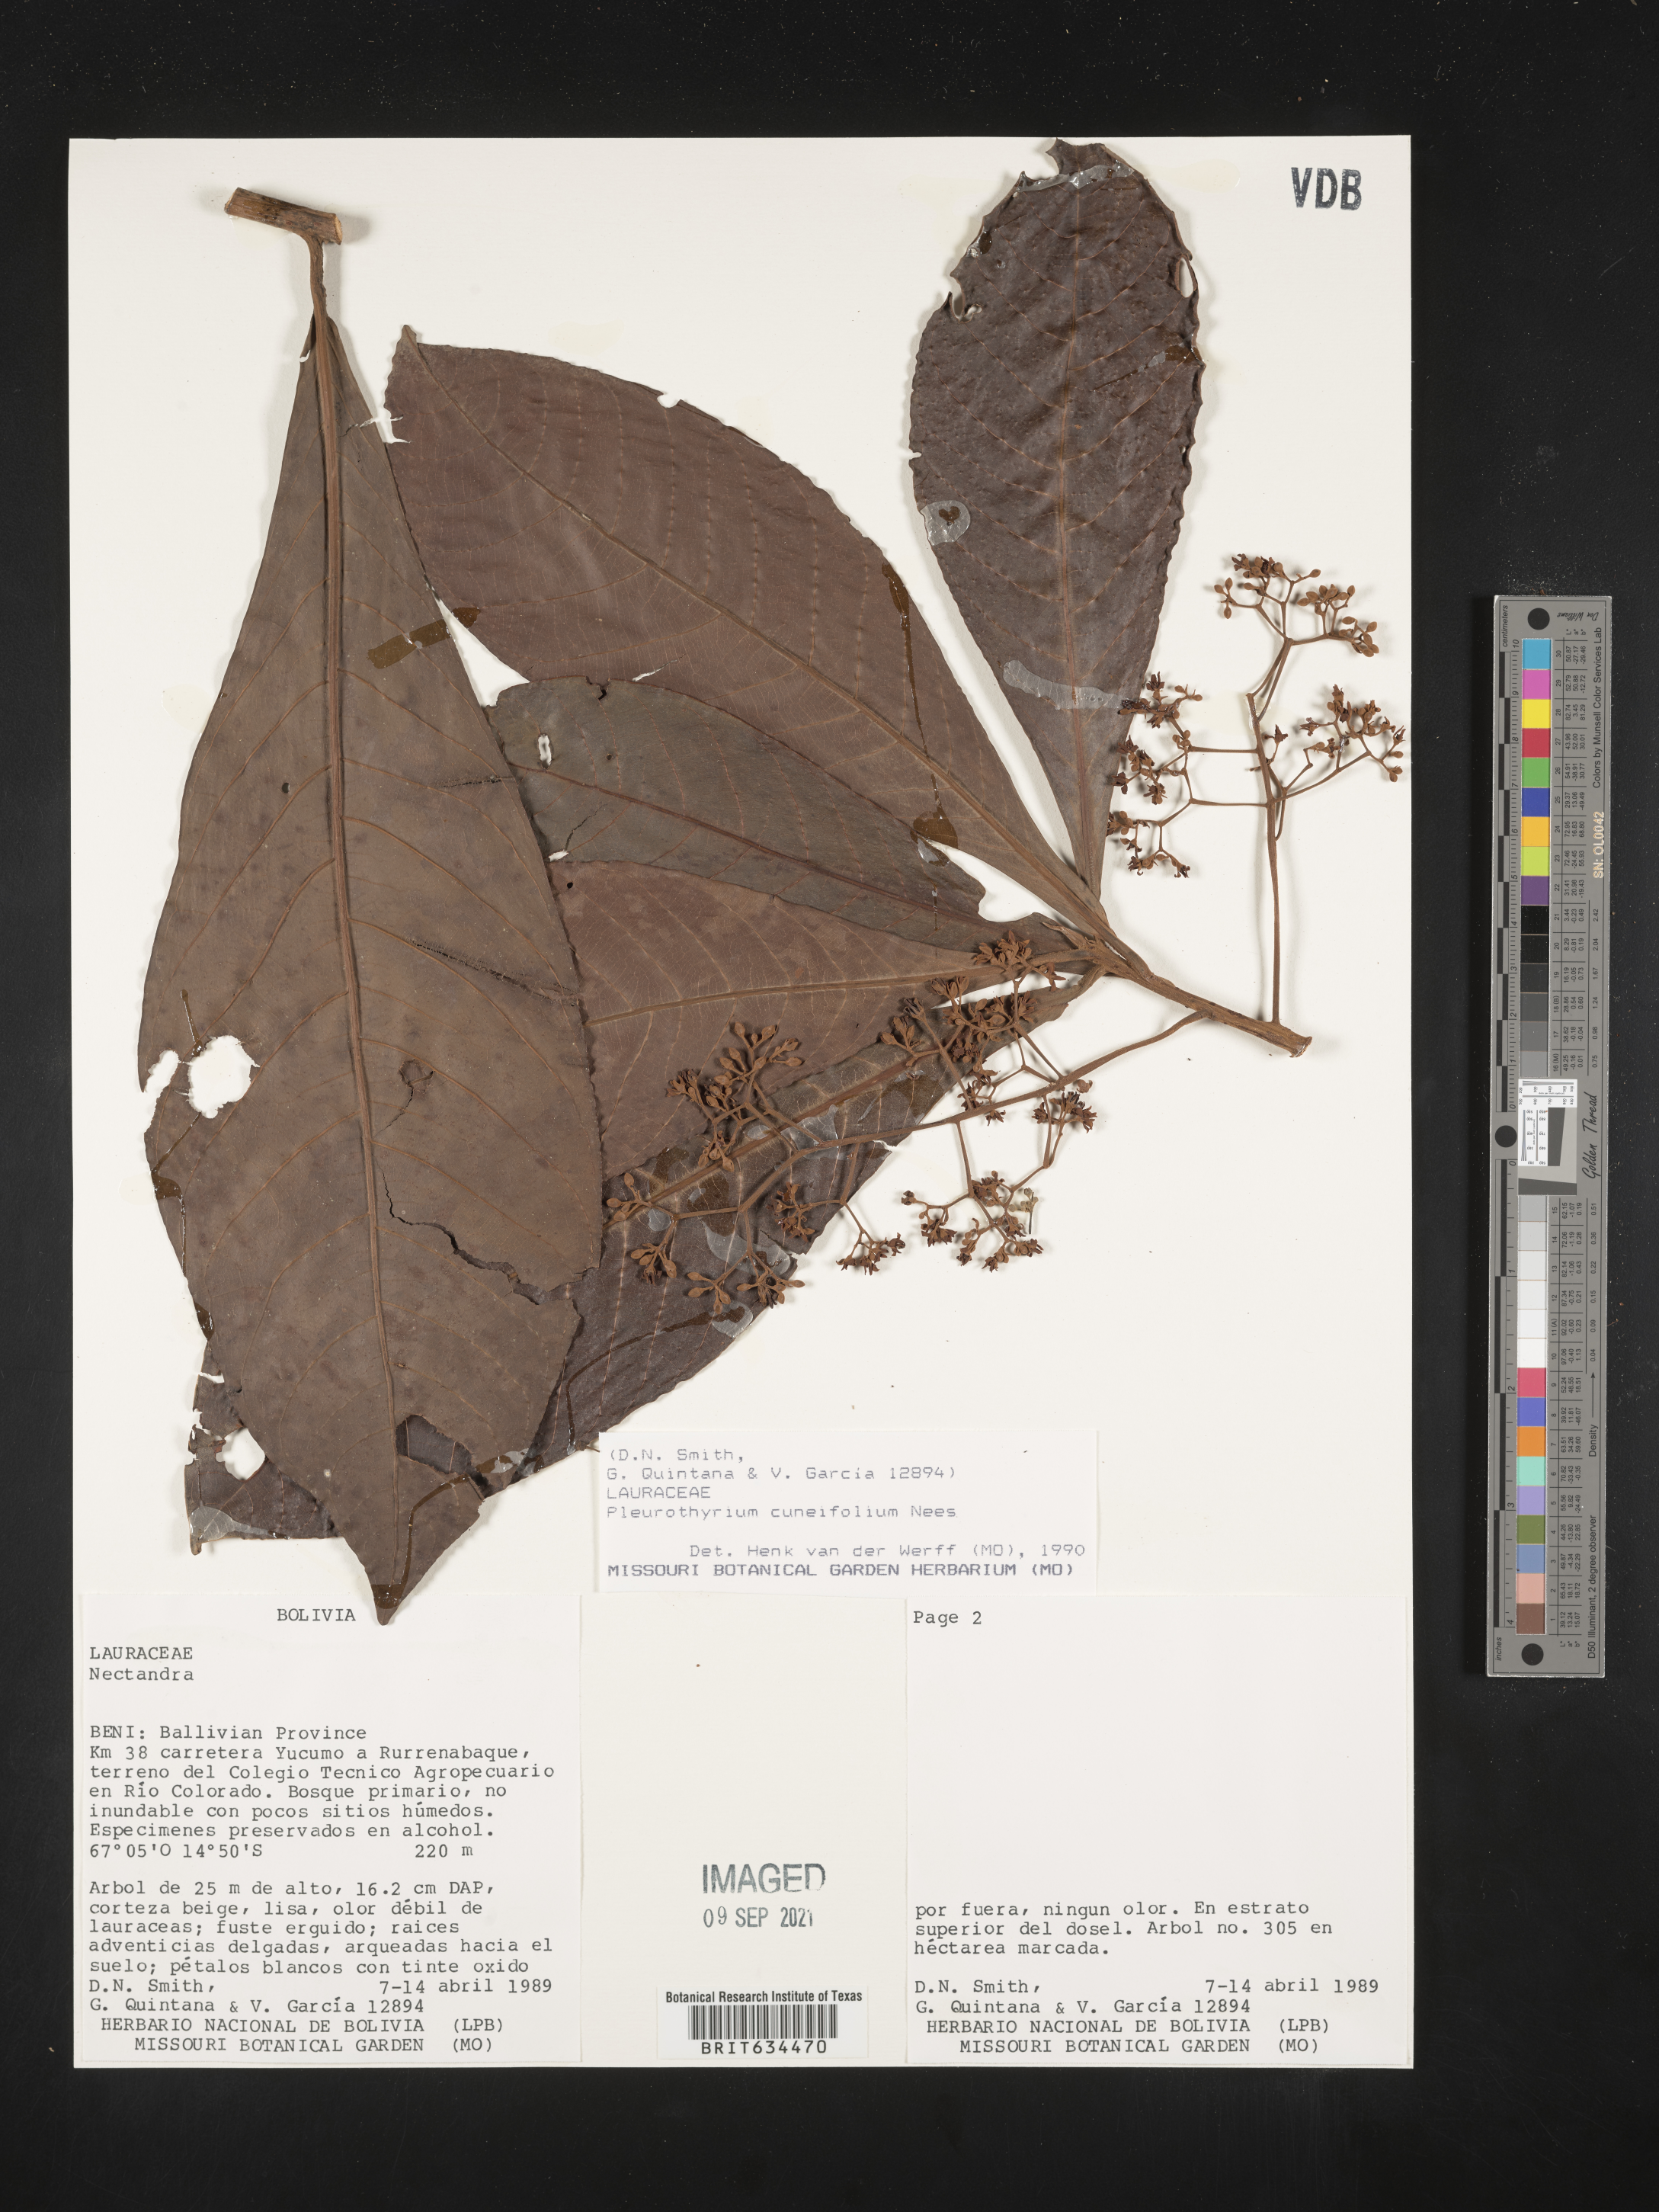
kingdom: Plantae
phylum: Tracheophyta
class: Magnoliopsida
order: Laurales
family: Lauraceae
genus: Pleurothyrium
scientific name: Pleurothyrium
